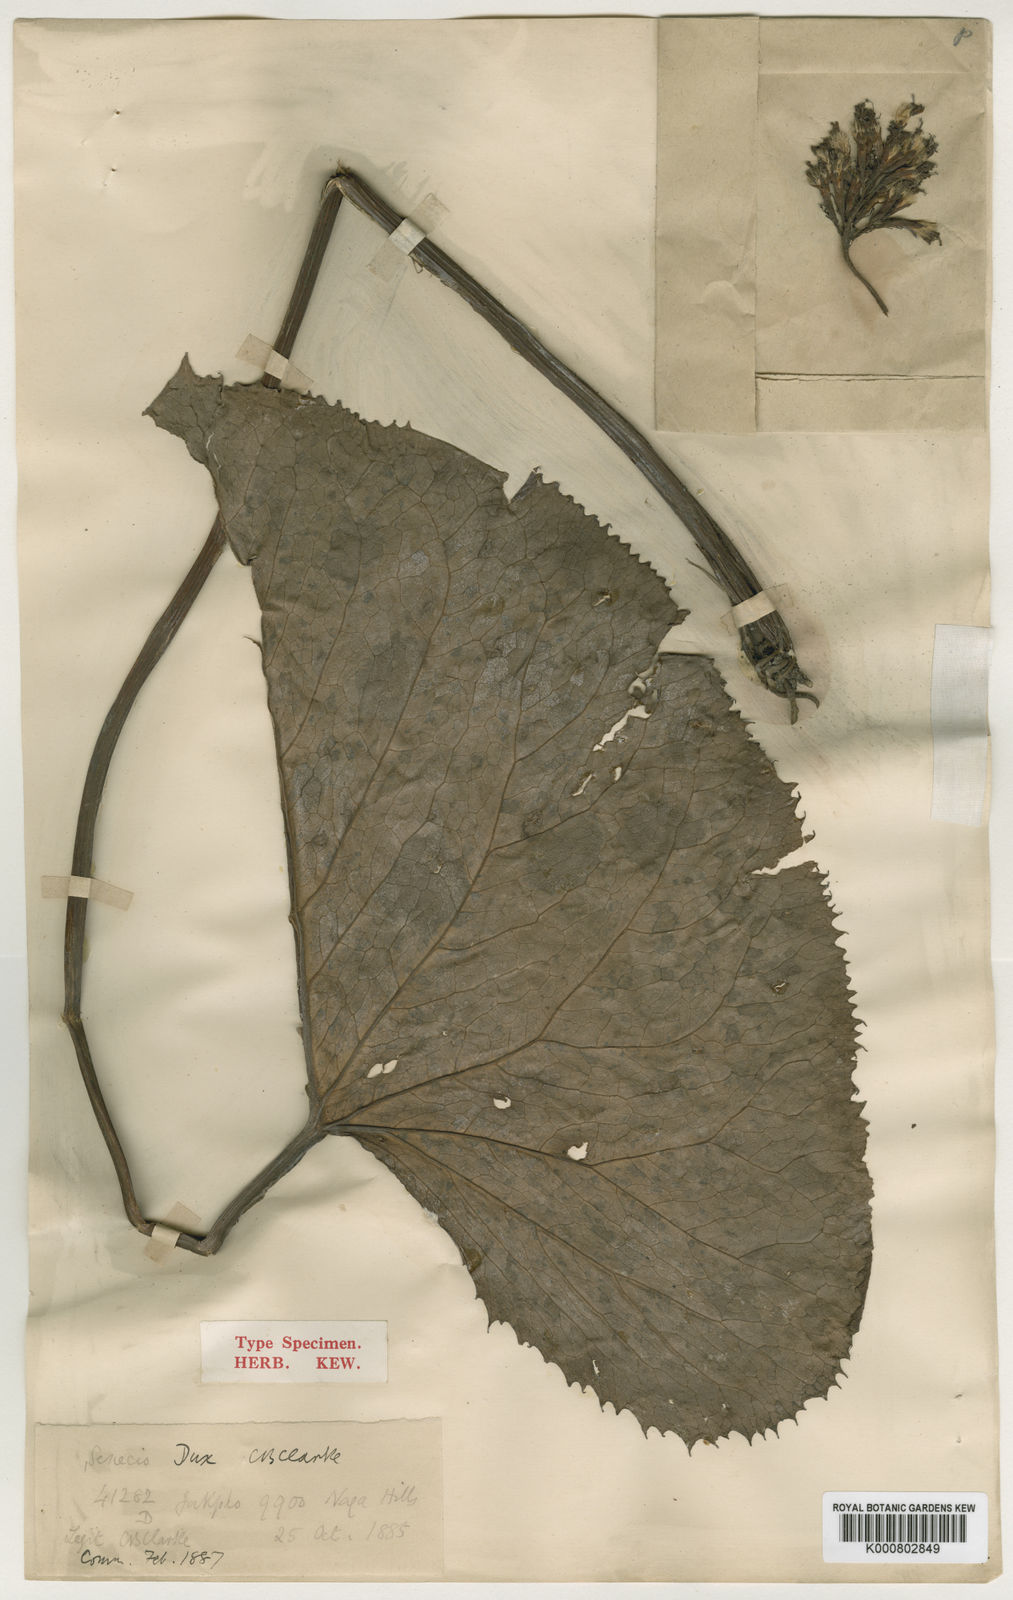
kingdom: Plantae
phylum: Tracheophyta
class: Magnoliopsida
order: Asterales
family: Asteraceae
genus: Ligularia
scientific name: Ligularia dux
